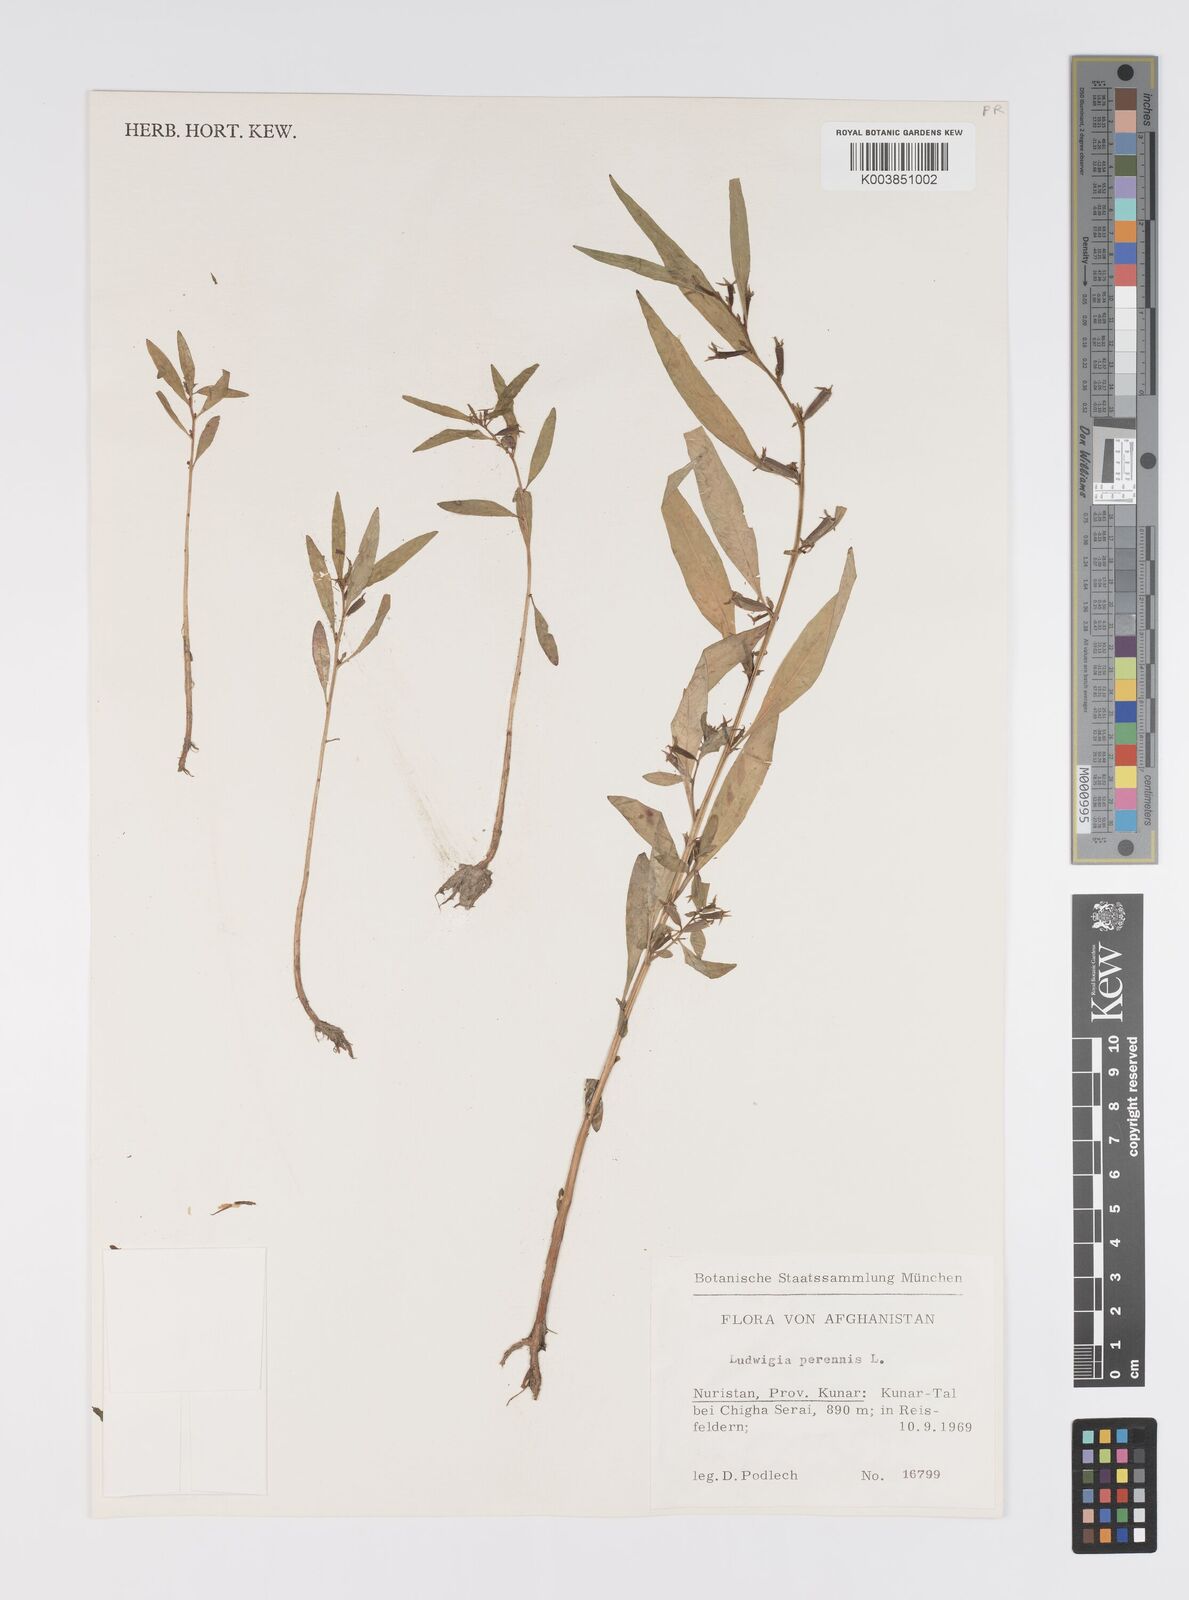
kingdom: Plantae
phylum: Tracheophyta
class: Magnoliopsida
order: Myrtales
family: Onagraceae
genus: Ludwigia
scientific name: Ludwigia perennis
